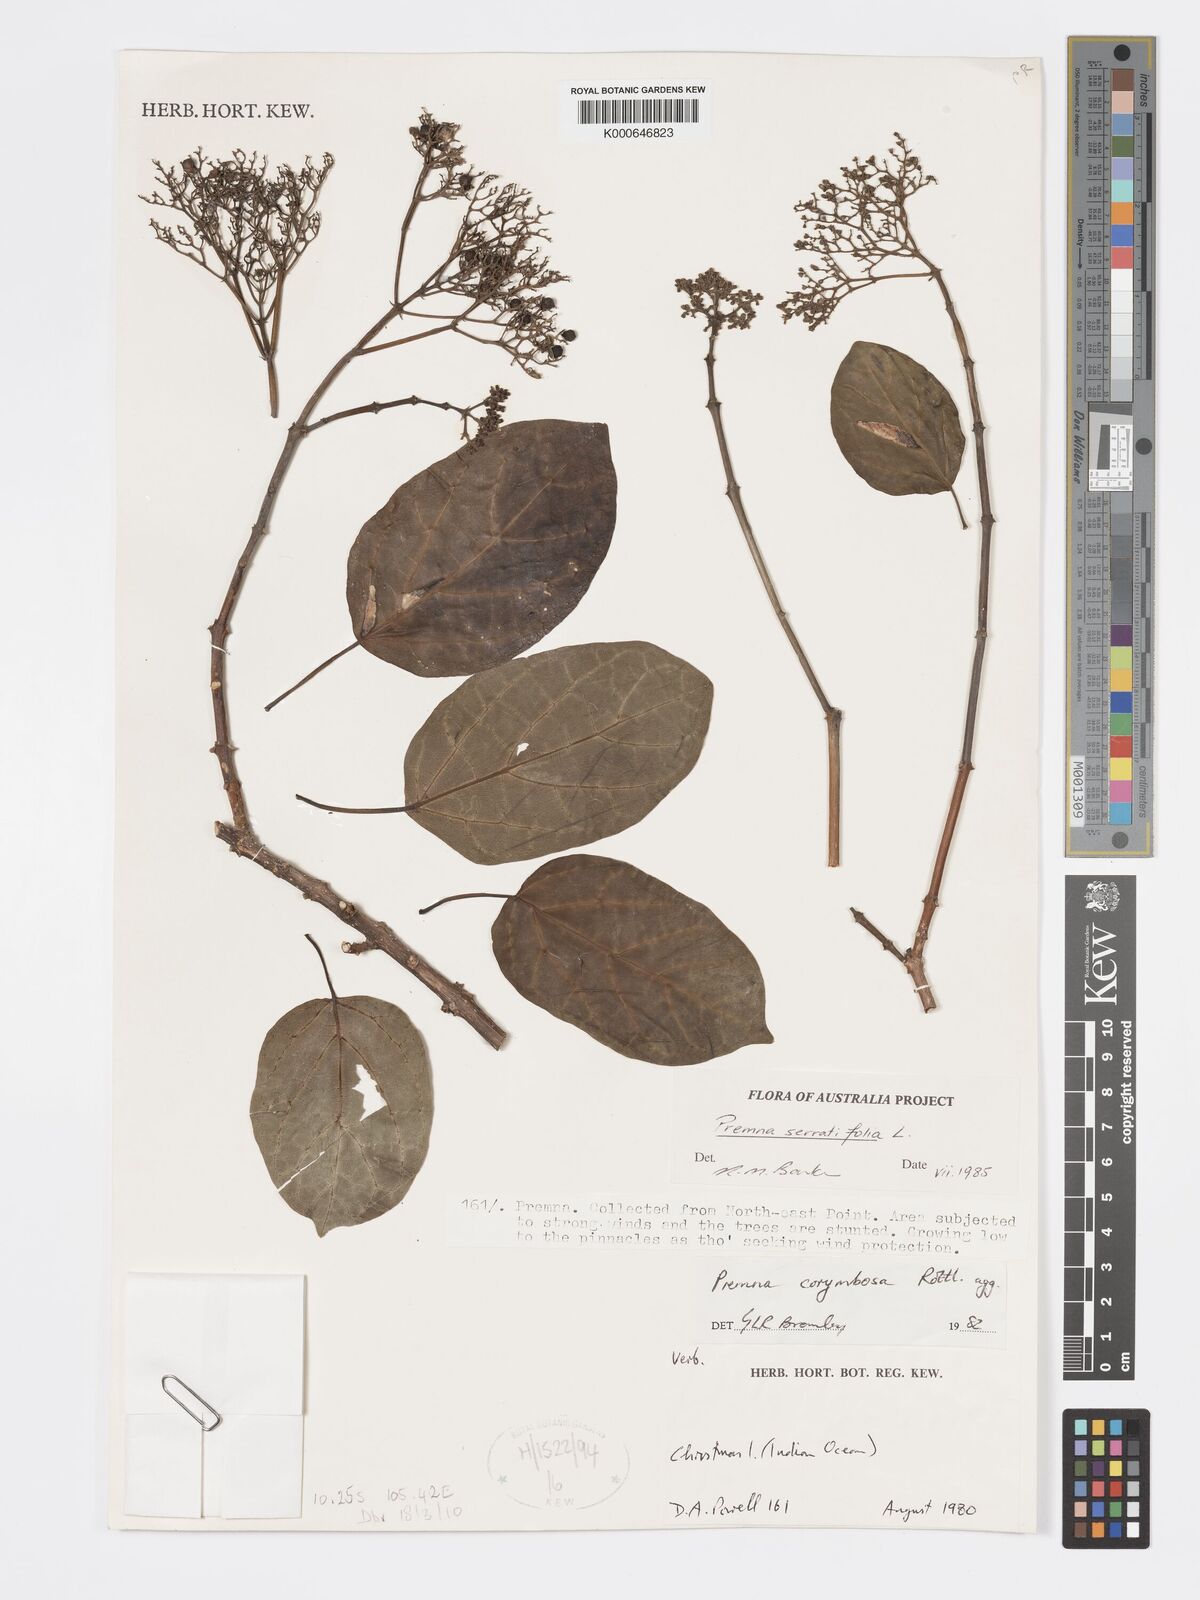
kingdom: Plantae
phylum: Tracheophyta
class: Magnoliopsida
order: Lamiales
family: Lamiaceae
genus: Premna
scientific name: Premna serratifolia
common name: Bastard guelder
